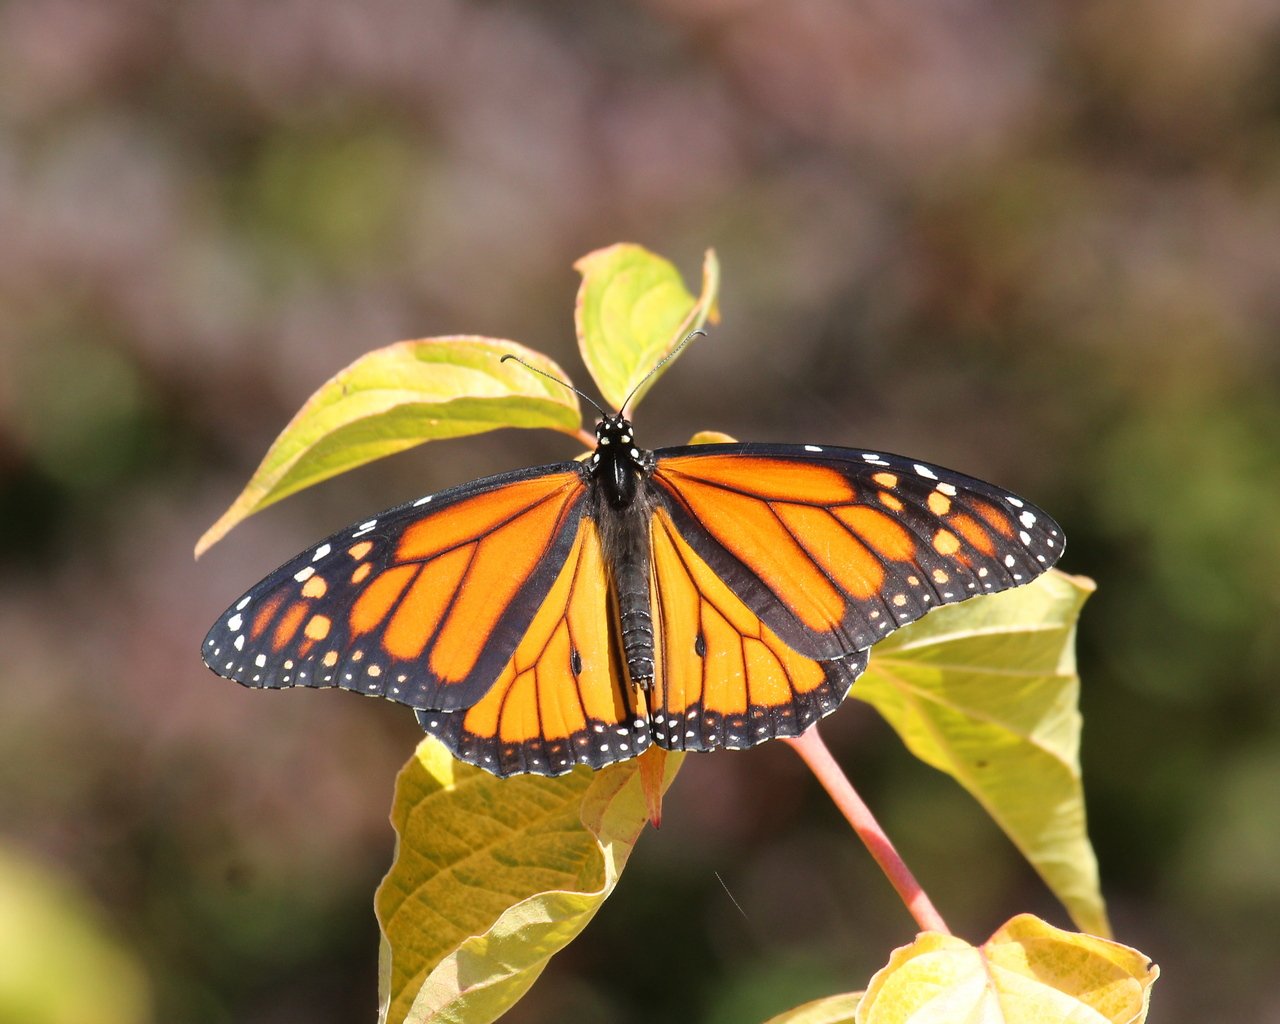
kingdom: Animalia
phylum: Arthropoda
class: Insecta
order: Lepidoptera
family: Nymphalidae
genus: Danaus
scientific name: Danaus plexippus
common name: Monarch
